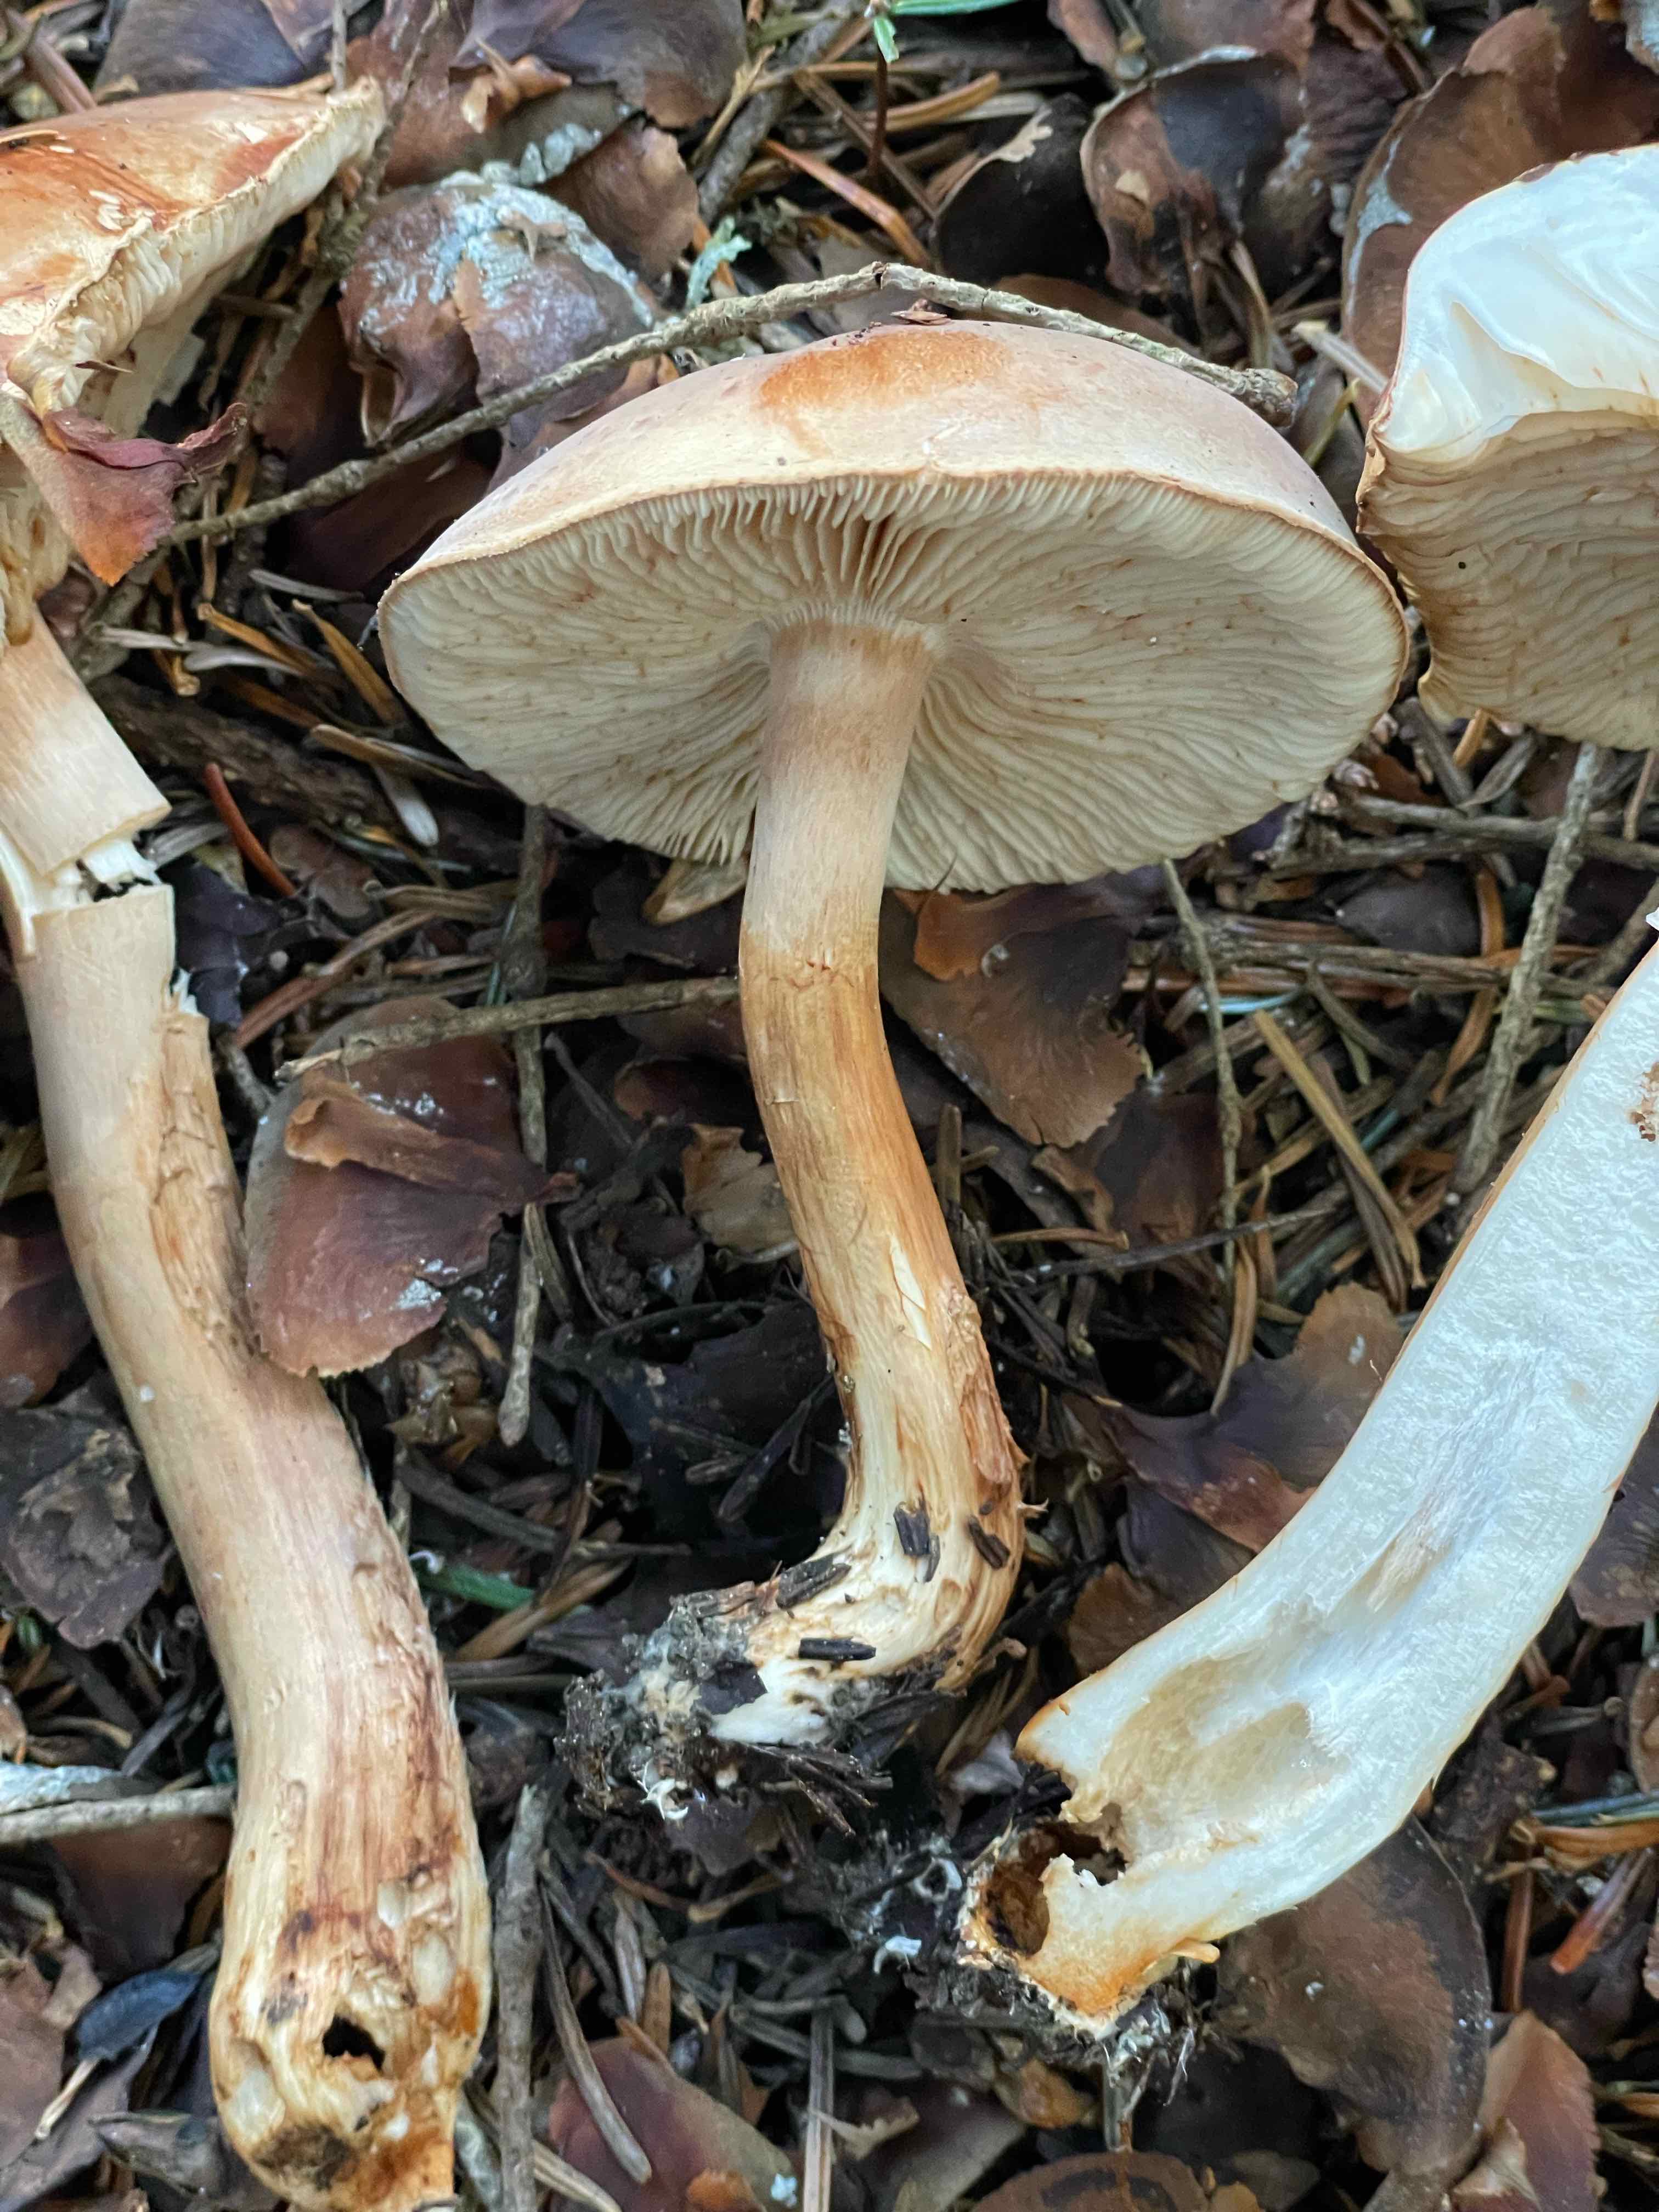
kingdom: Fungi
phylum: Basidiomycota
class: Agaricomycetes
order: Agaricales
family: Tricholomataceae
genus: Tricholoma
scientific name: Tricholoma
